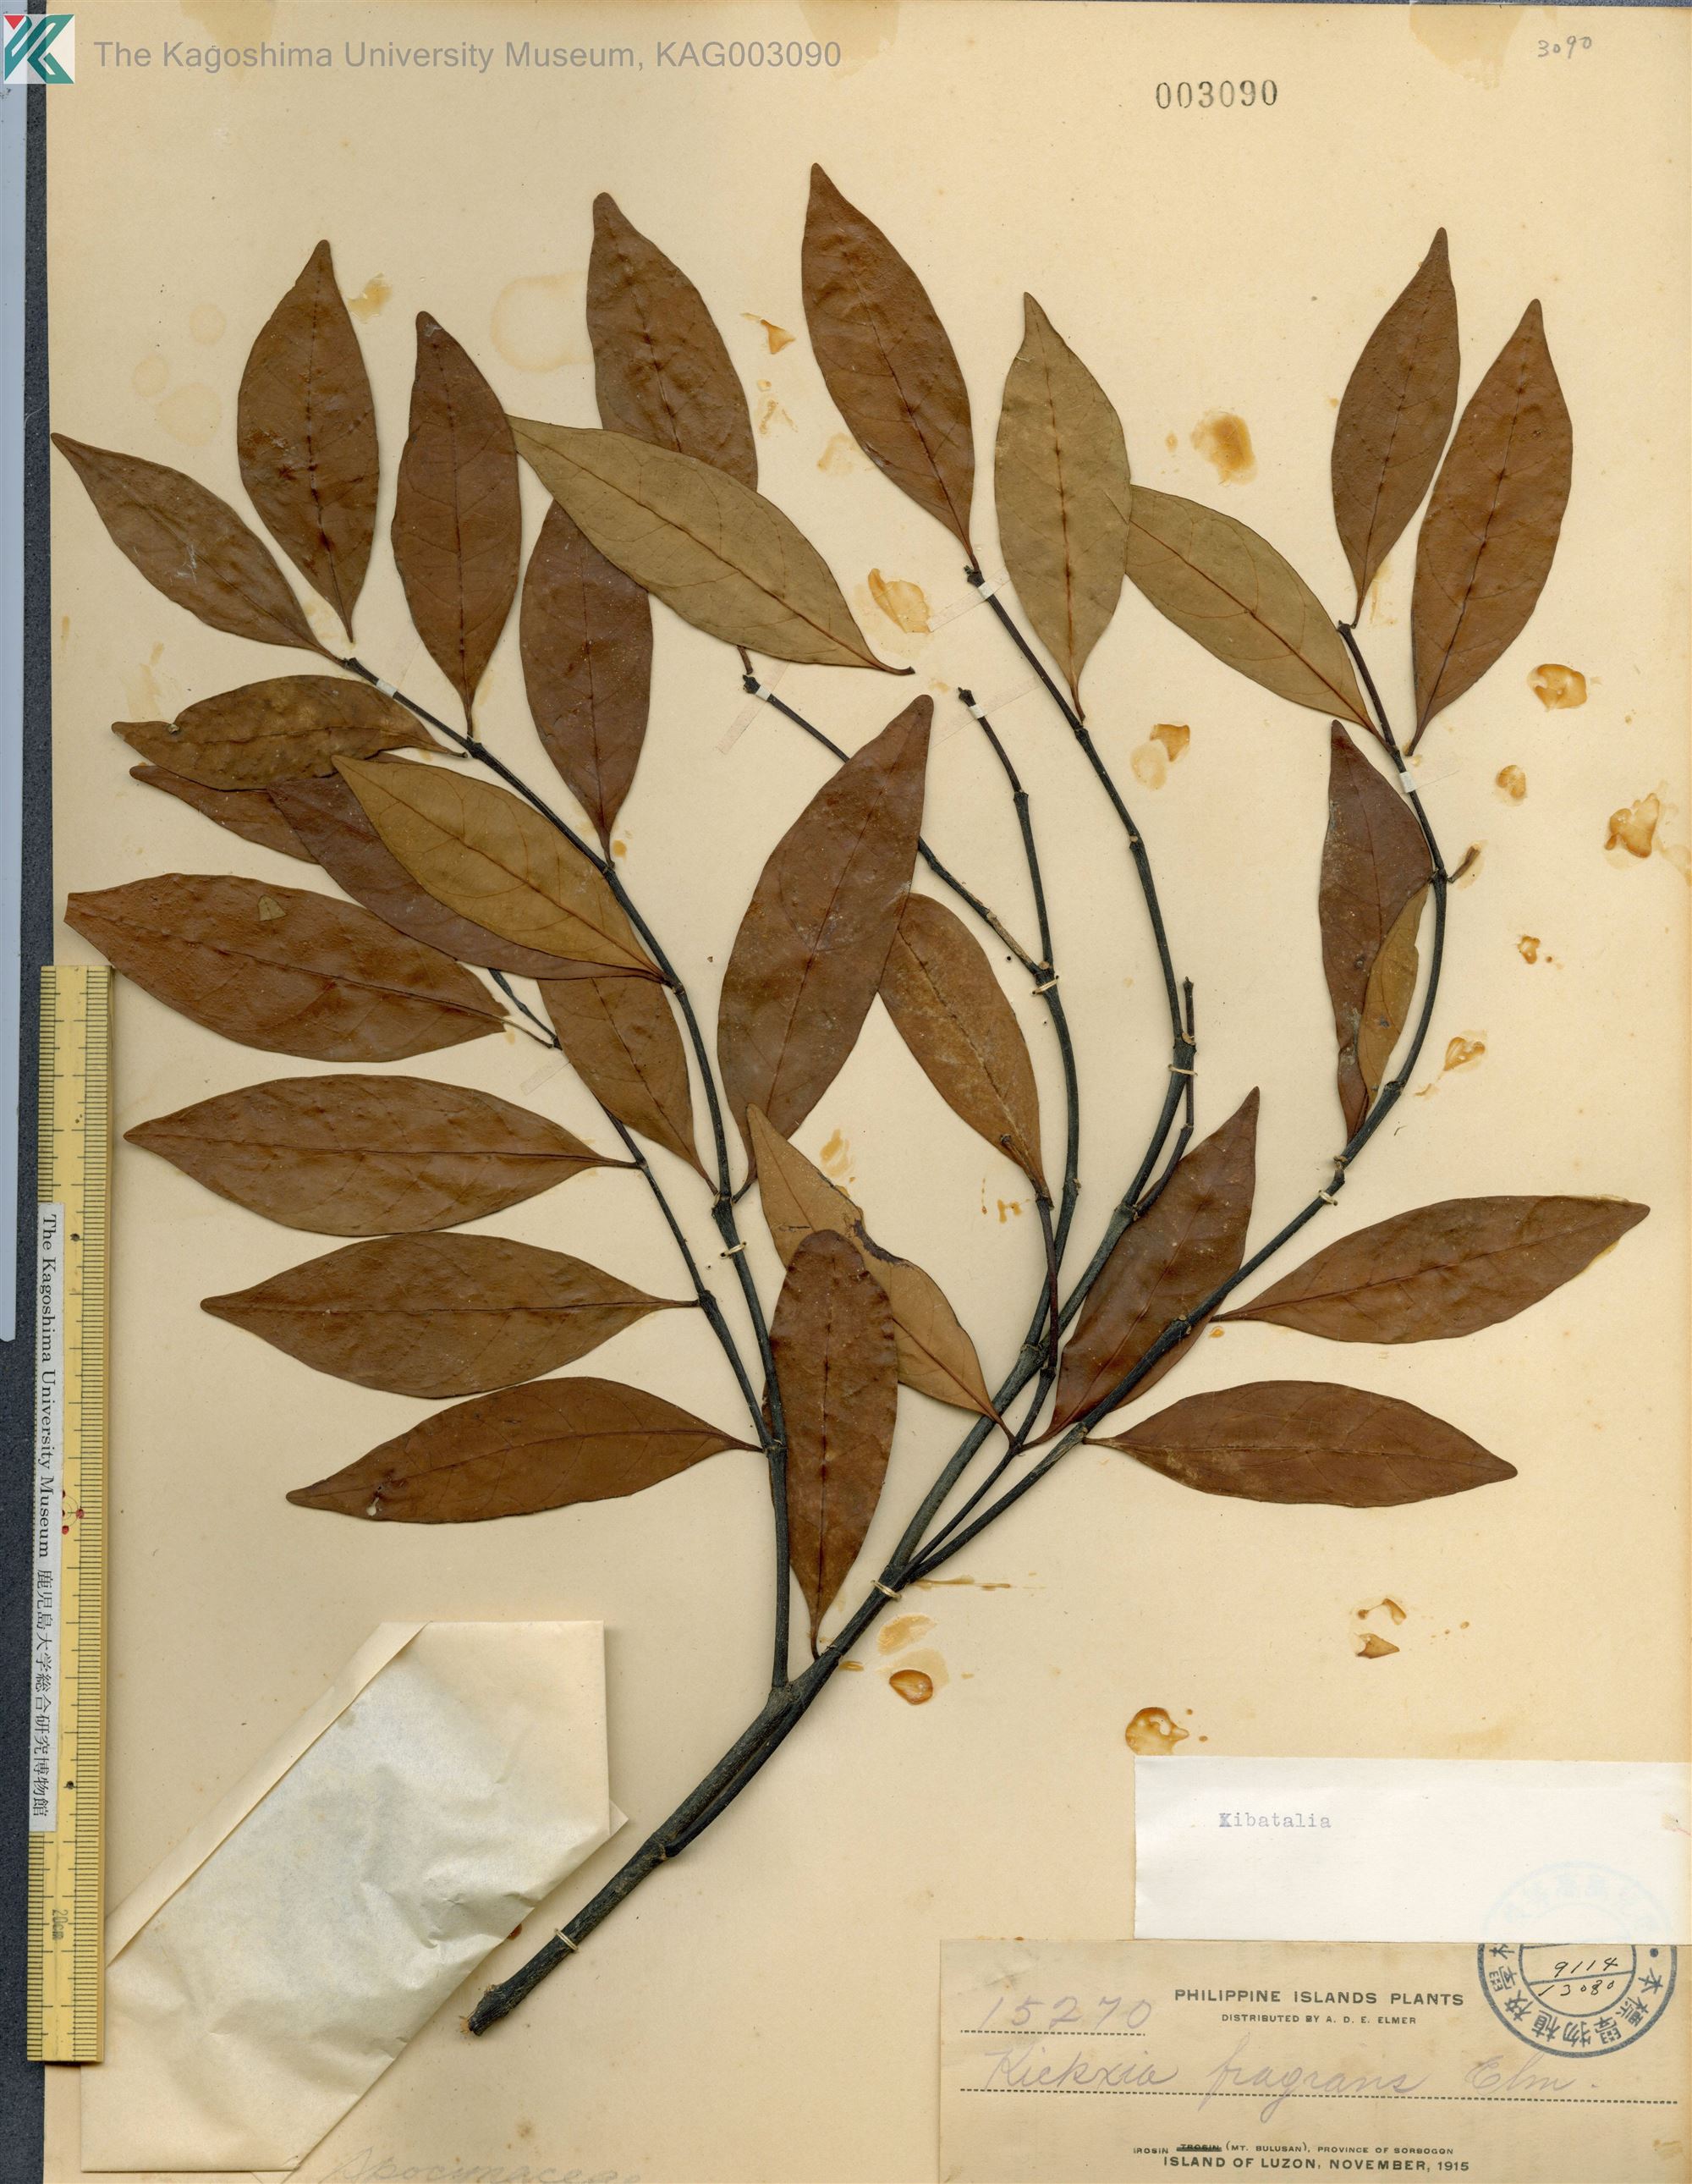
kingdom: Plantae
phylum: Tracheophyta
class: Magnoliopsida
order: Gentianales
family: Apocynaceae
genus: Kibatalia
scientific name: Kibatalia
